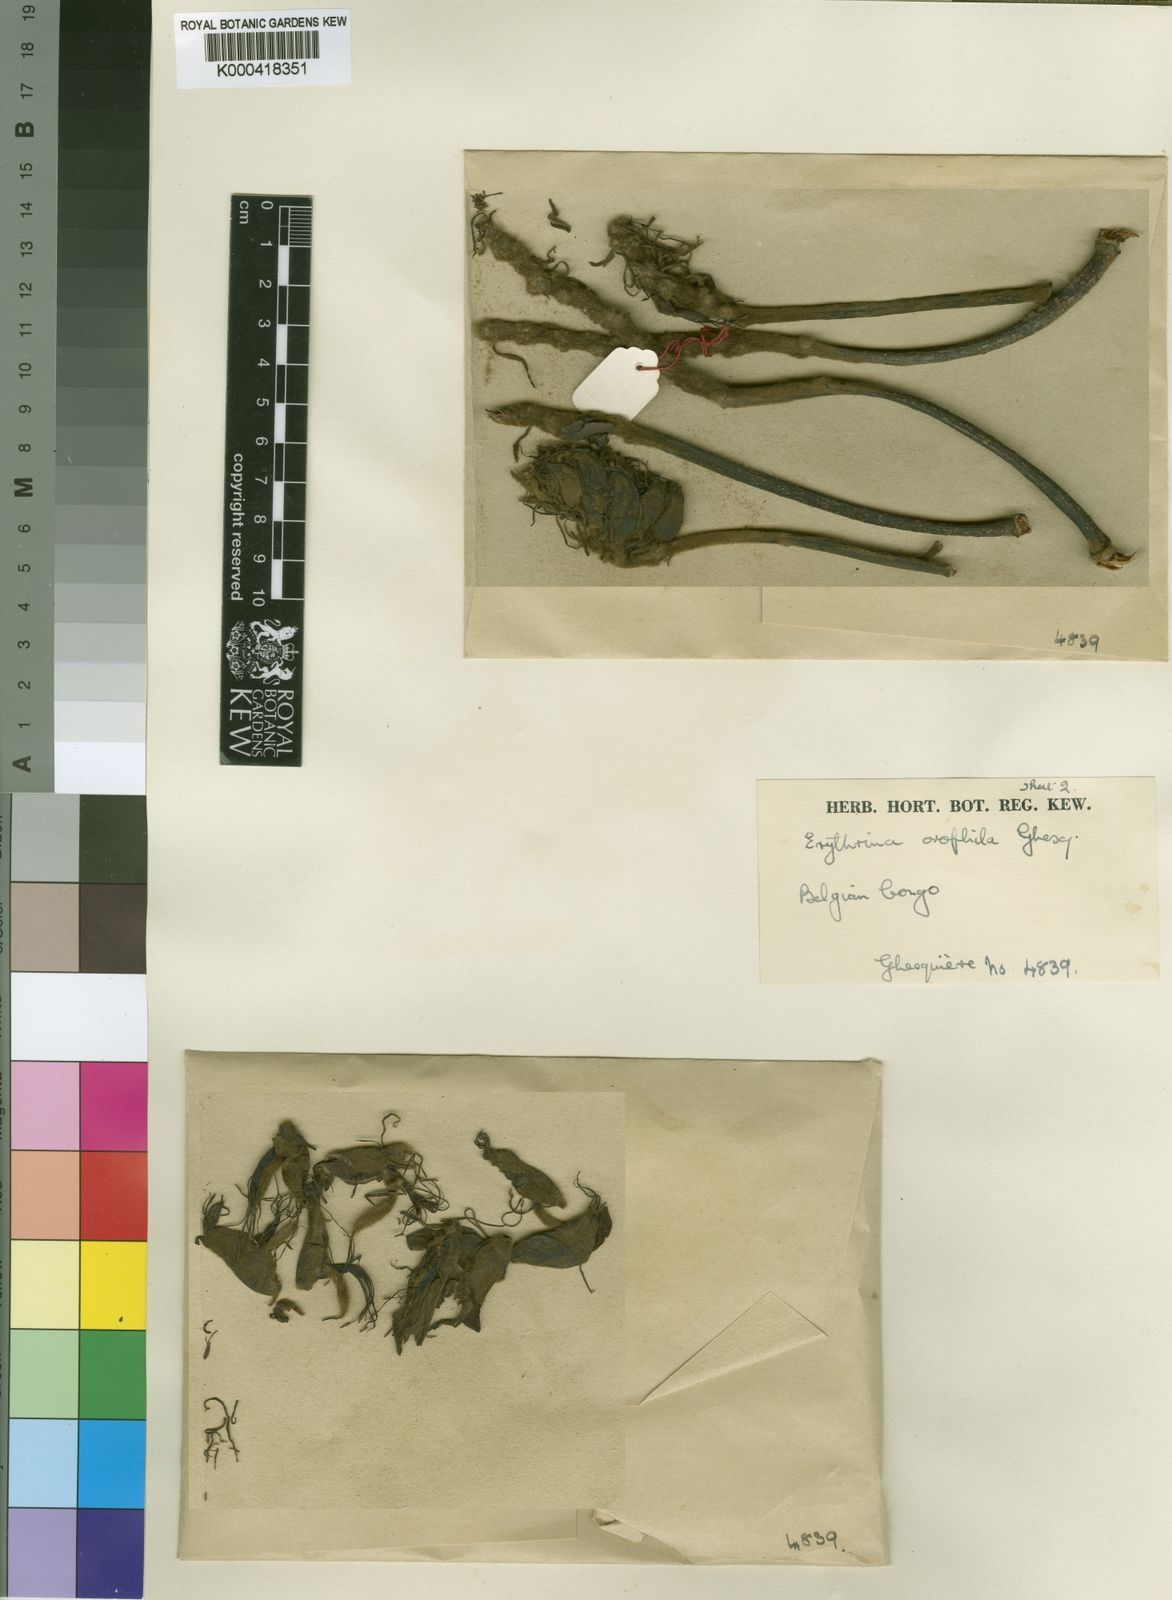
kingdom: Plantae
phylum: Tracheophyta
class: Magnoliopsida
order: Fabales
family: Fabaceae
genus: Erythrina
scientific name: Erythrina orophila
